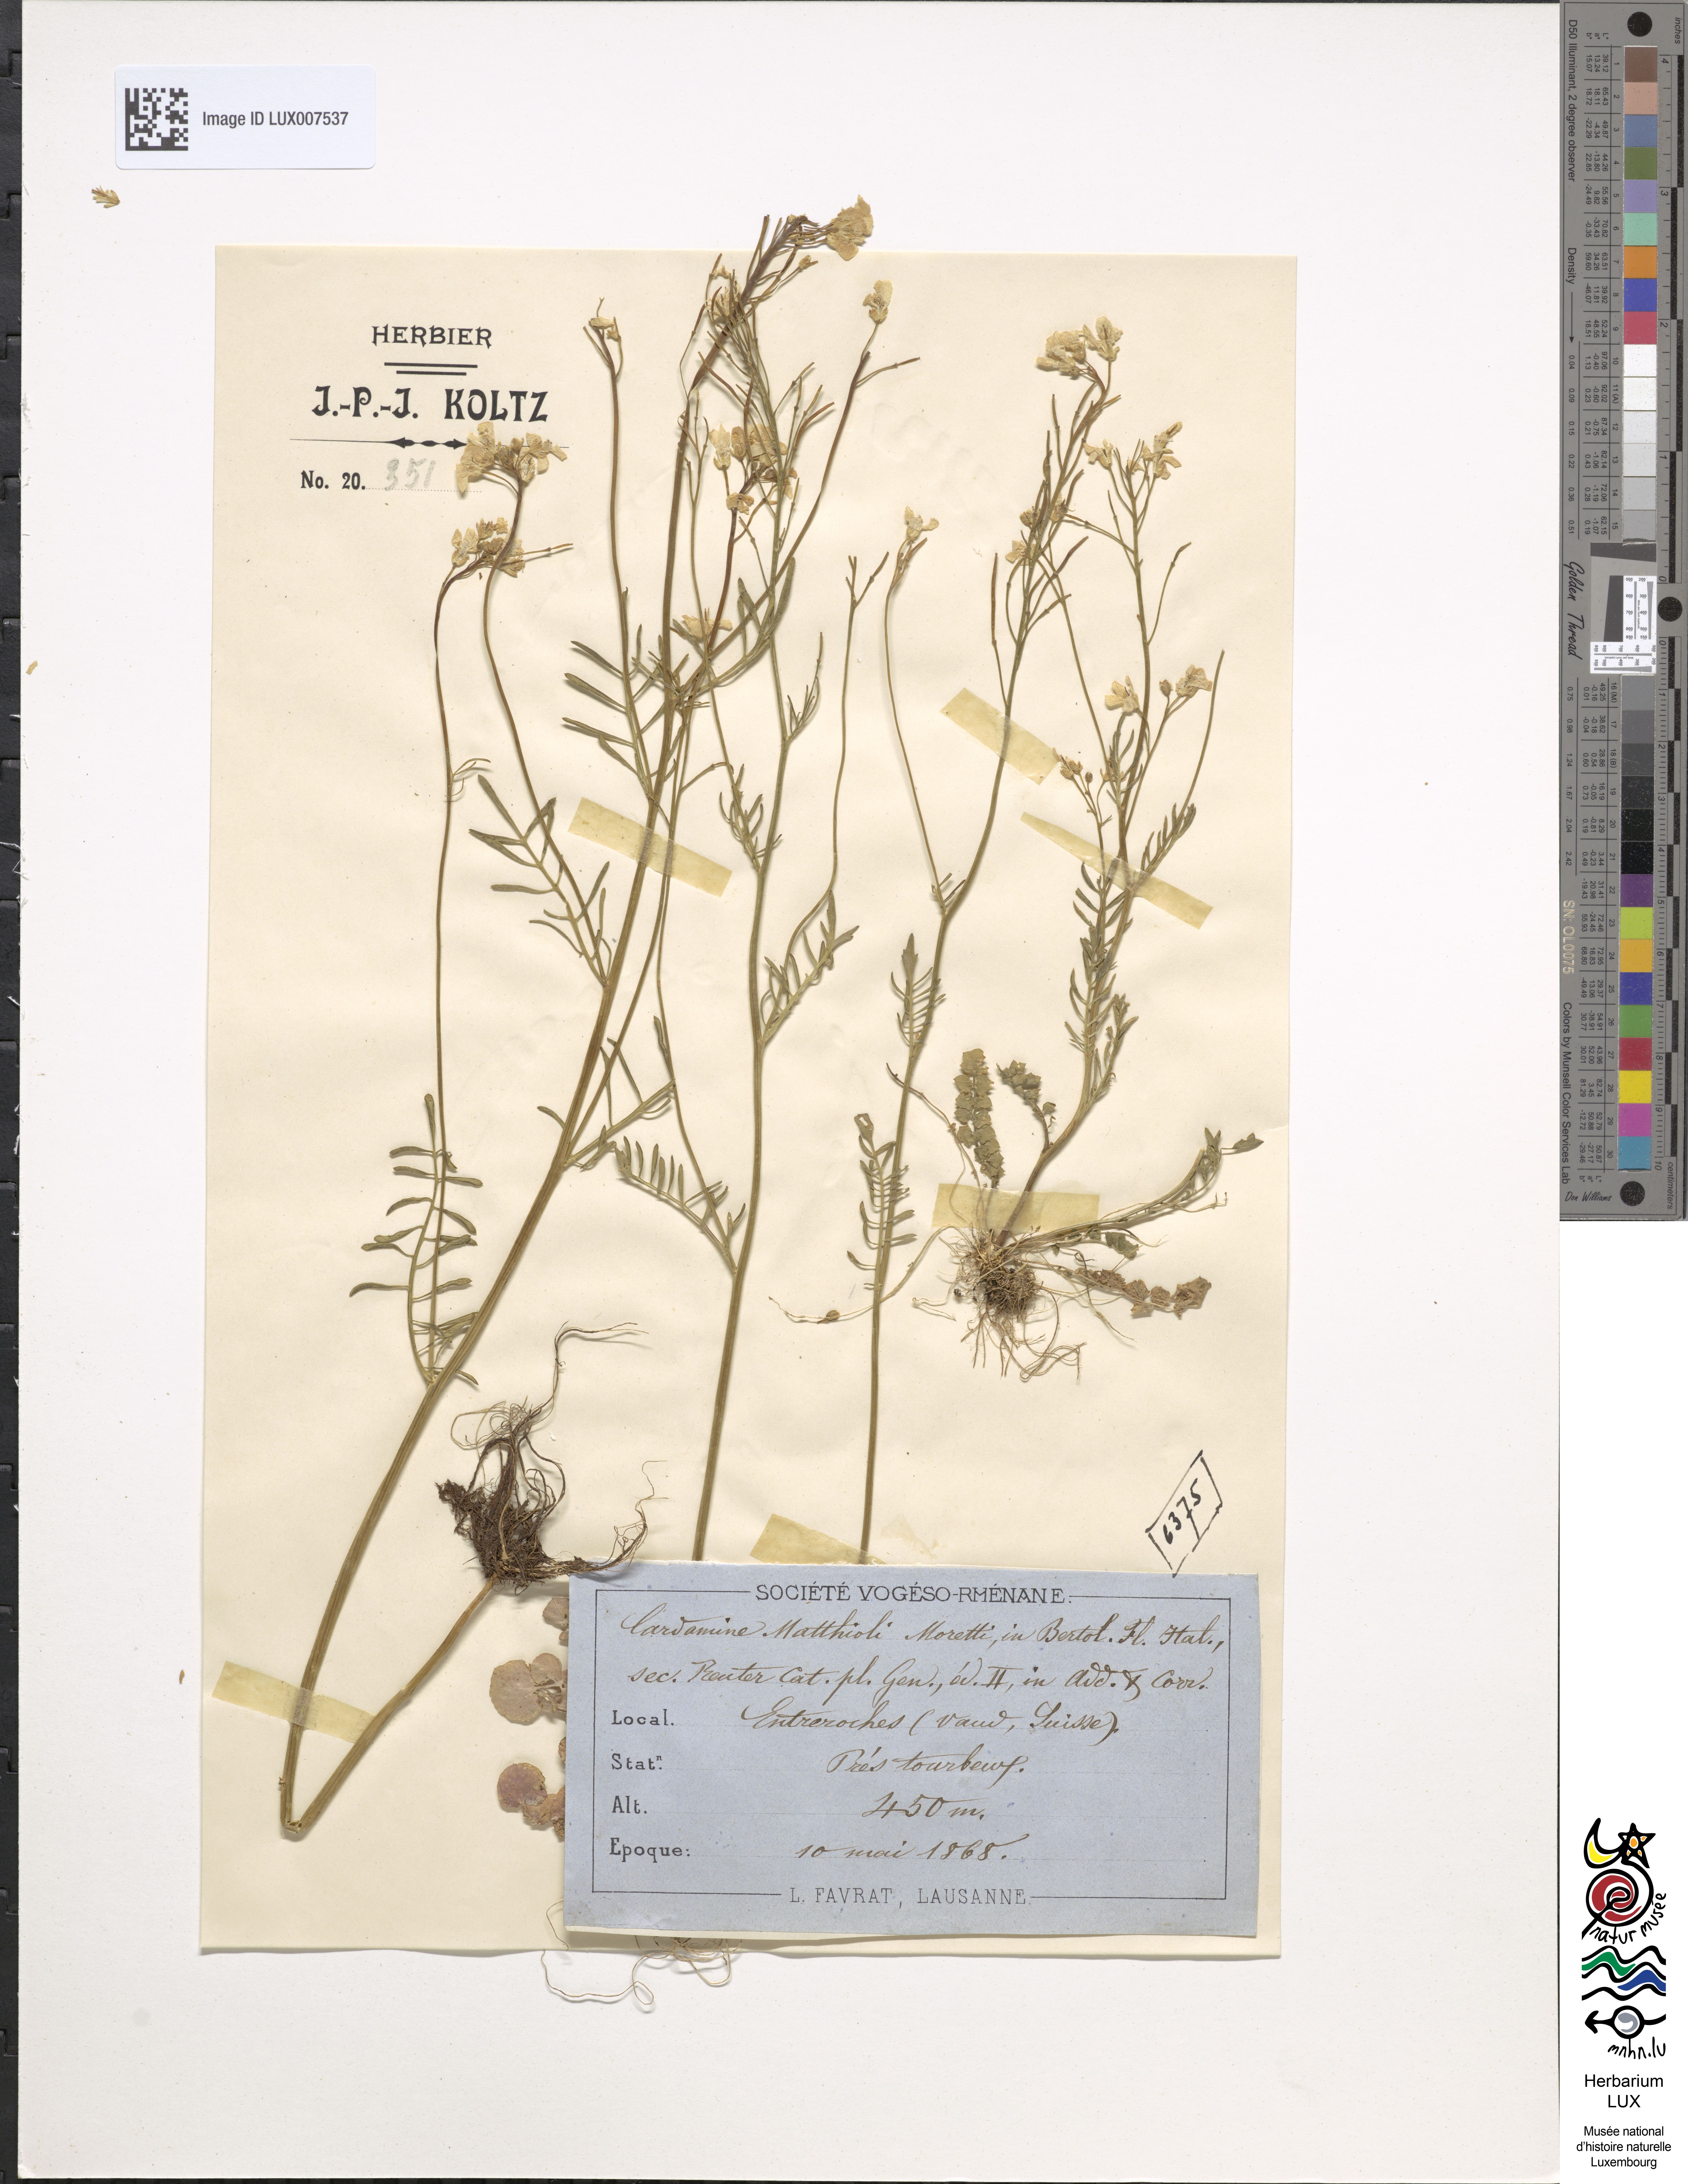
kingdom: Plantae
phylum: Tracheophyta
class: Magnoliopsida
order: Brassicales
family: Brassicaceae
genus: Cardamine
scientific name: Cardamine matthioli
